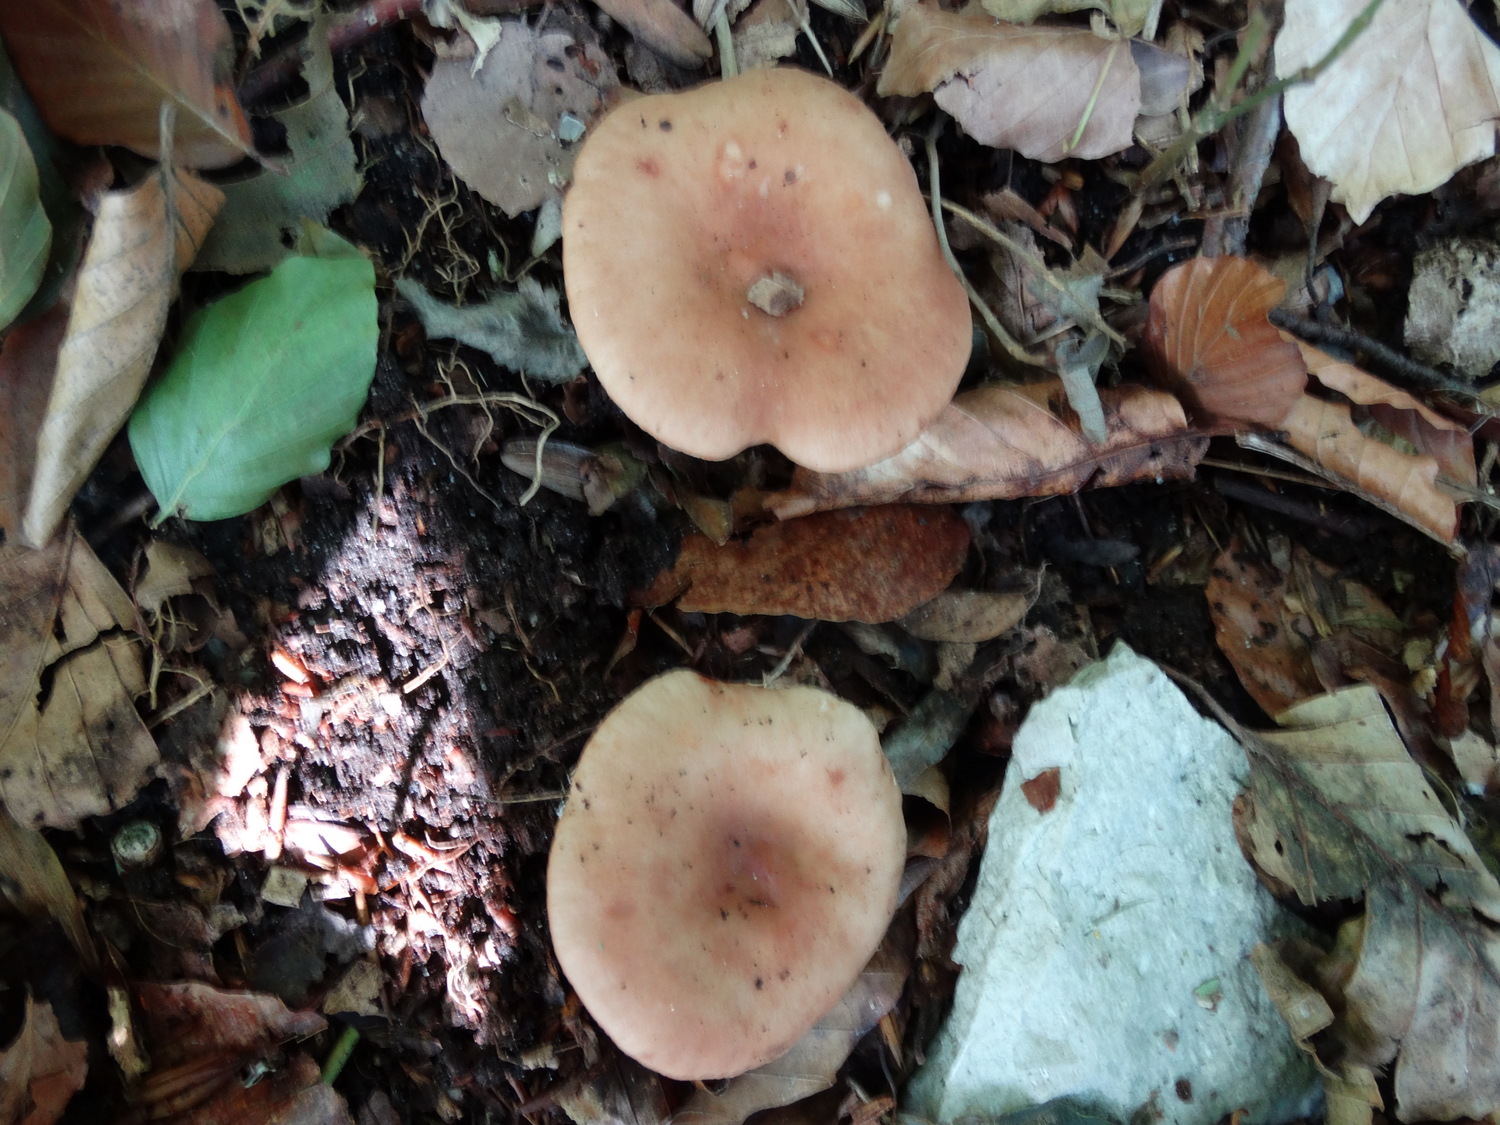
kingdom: Fungi
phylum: Basidiomycota
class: Agaricomycetes
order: Russulales
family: Russulaceae
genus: Lactarius
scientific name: Lactarius subdulcis
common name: sødlig mælkehat
